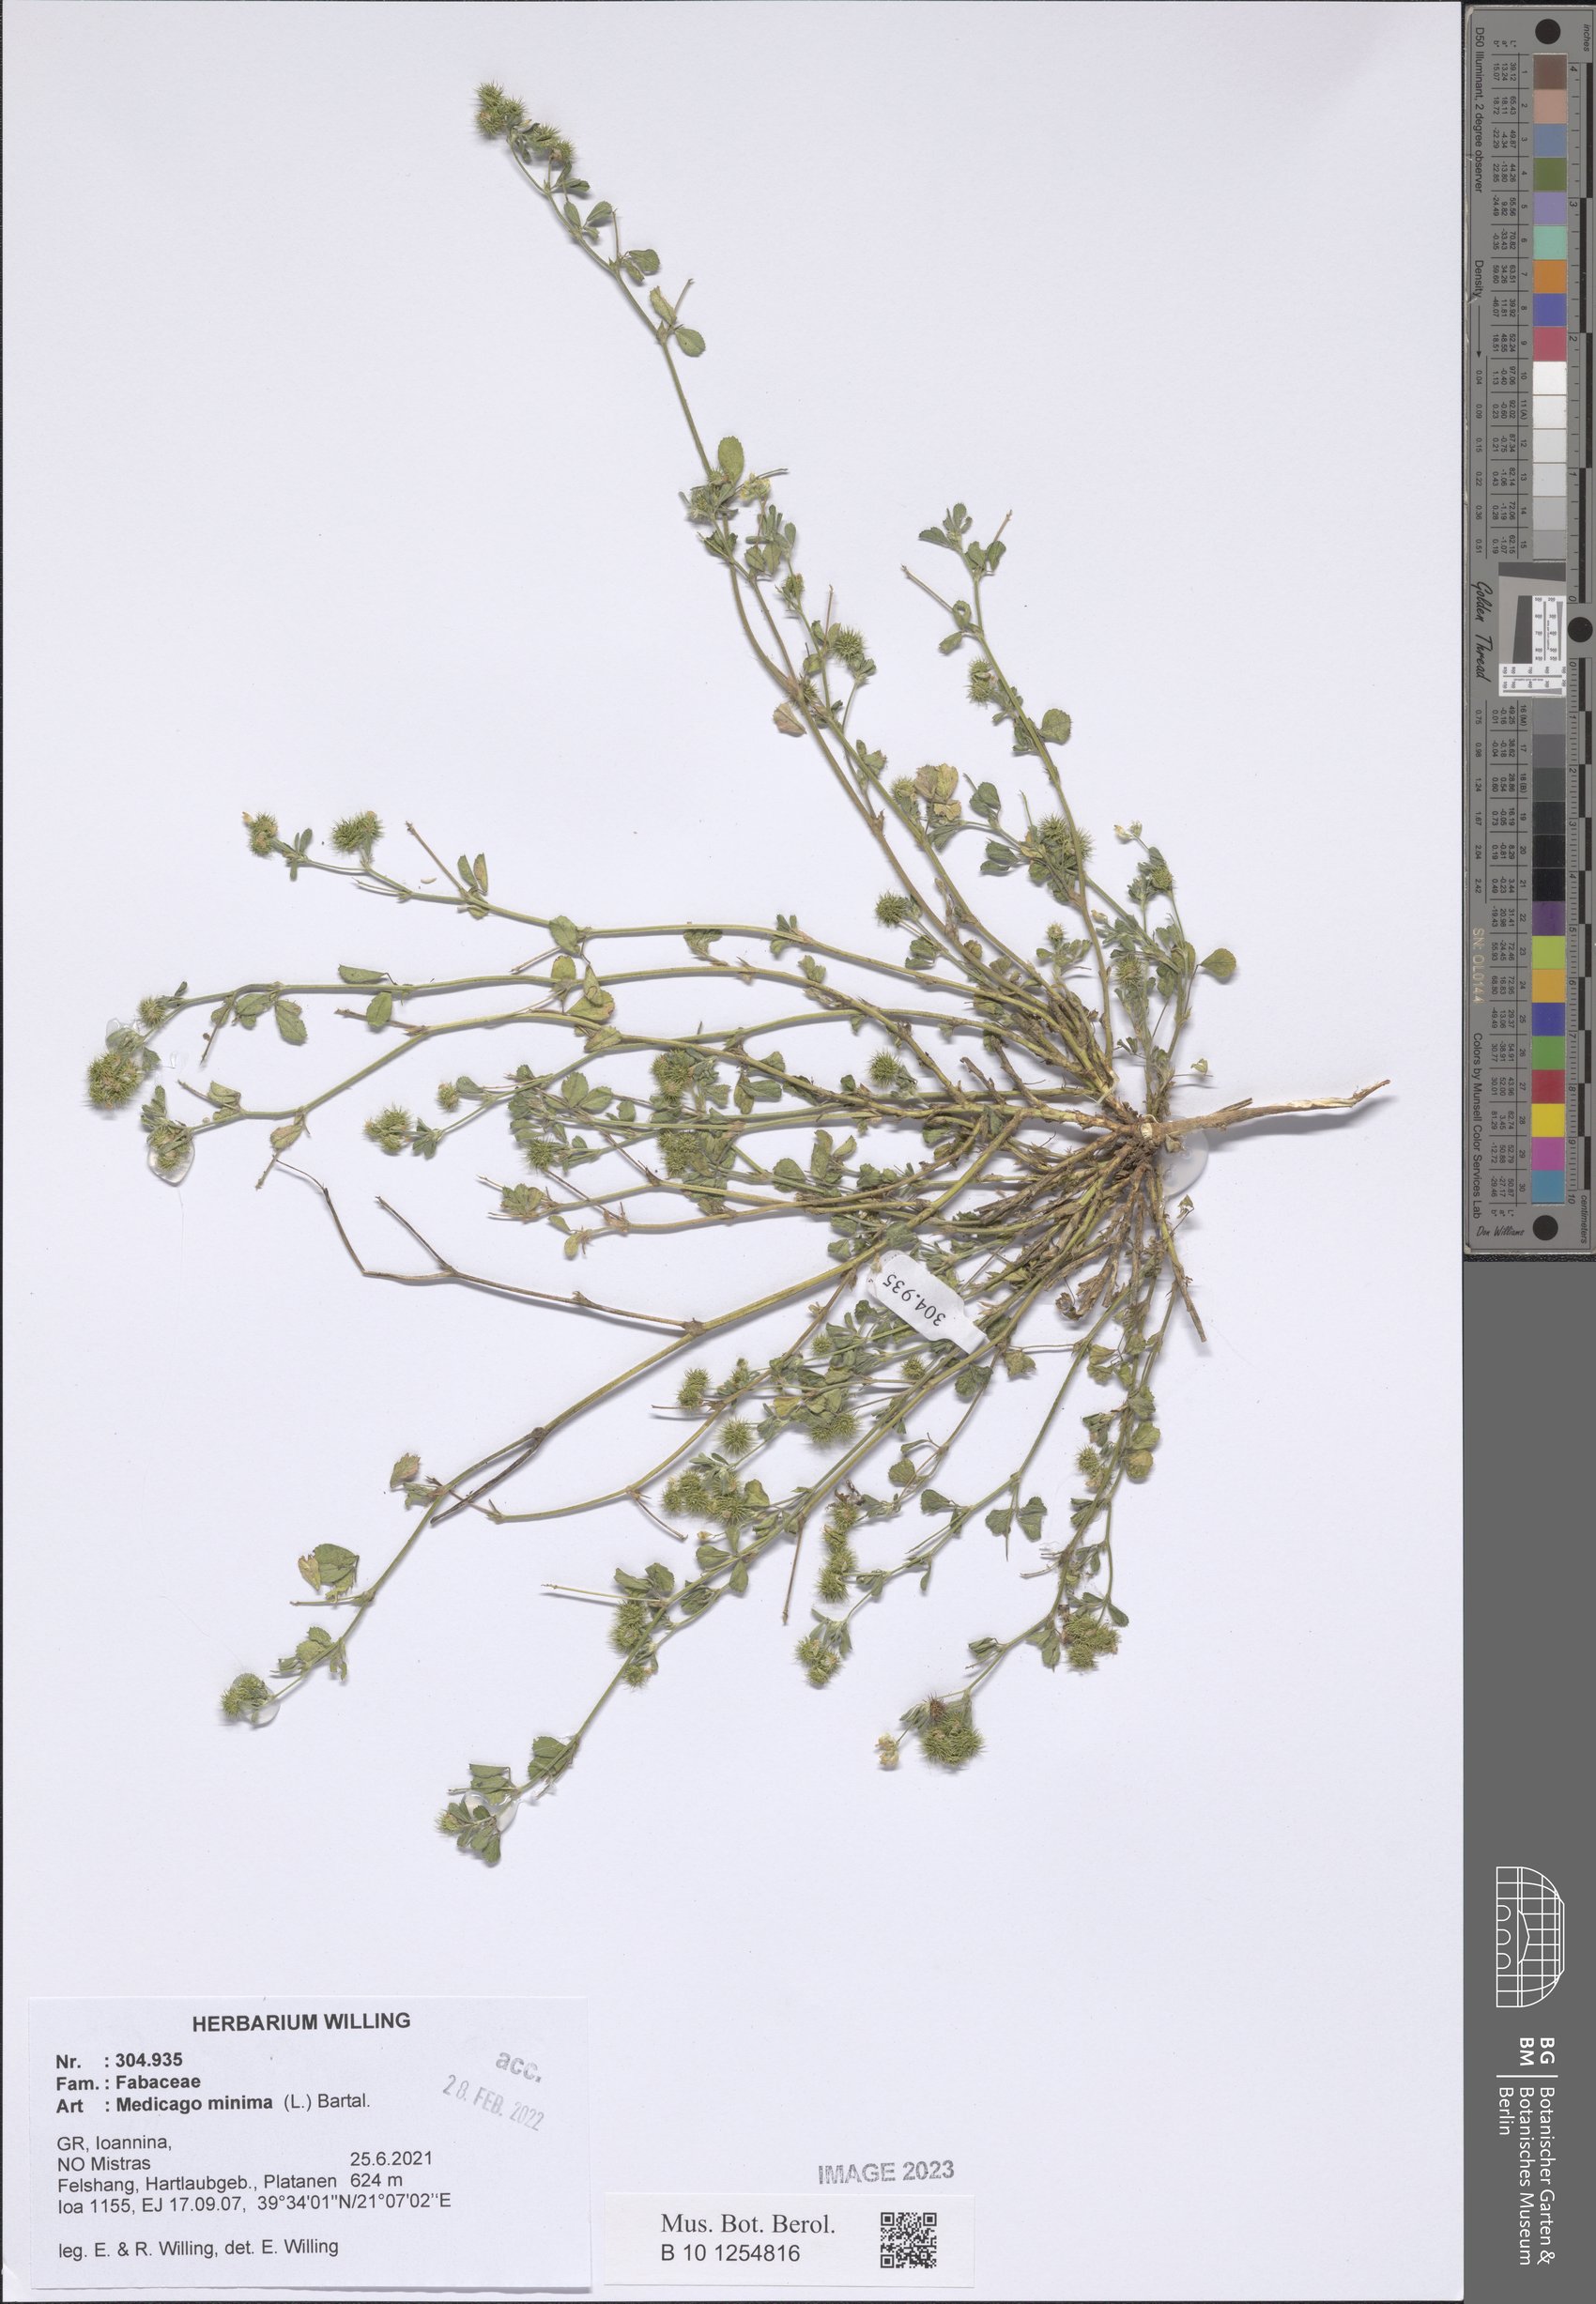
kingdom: Plantae
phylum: Tracheophyta
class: Magnoliopsida
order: Fabales
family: Fabaceae
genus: Medicago
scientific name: Medicago minima
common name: Little bur-clover
